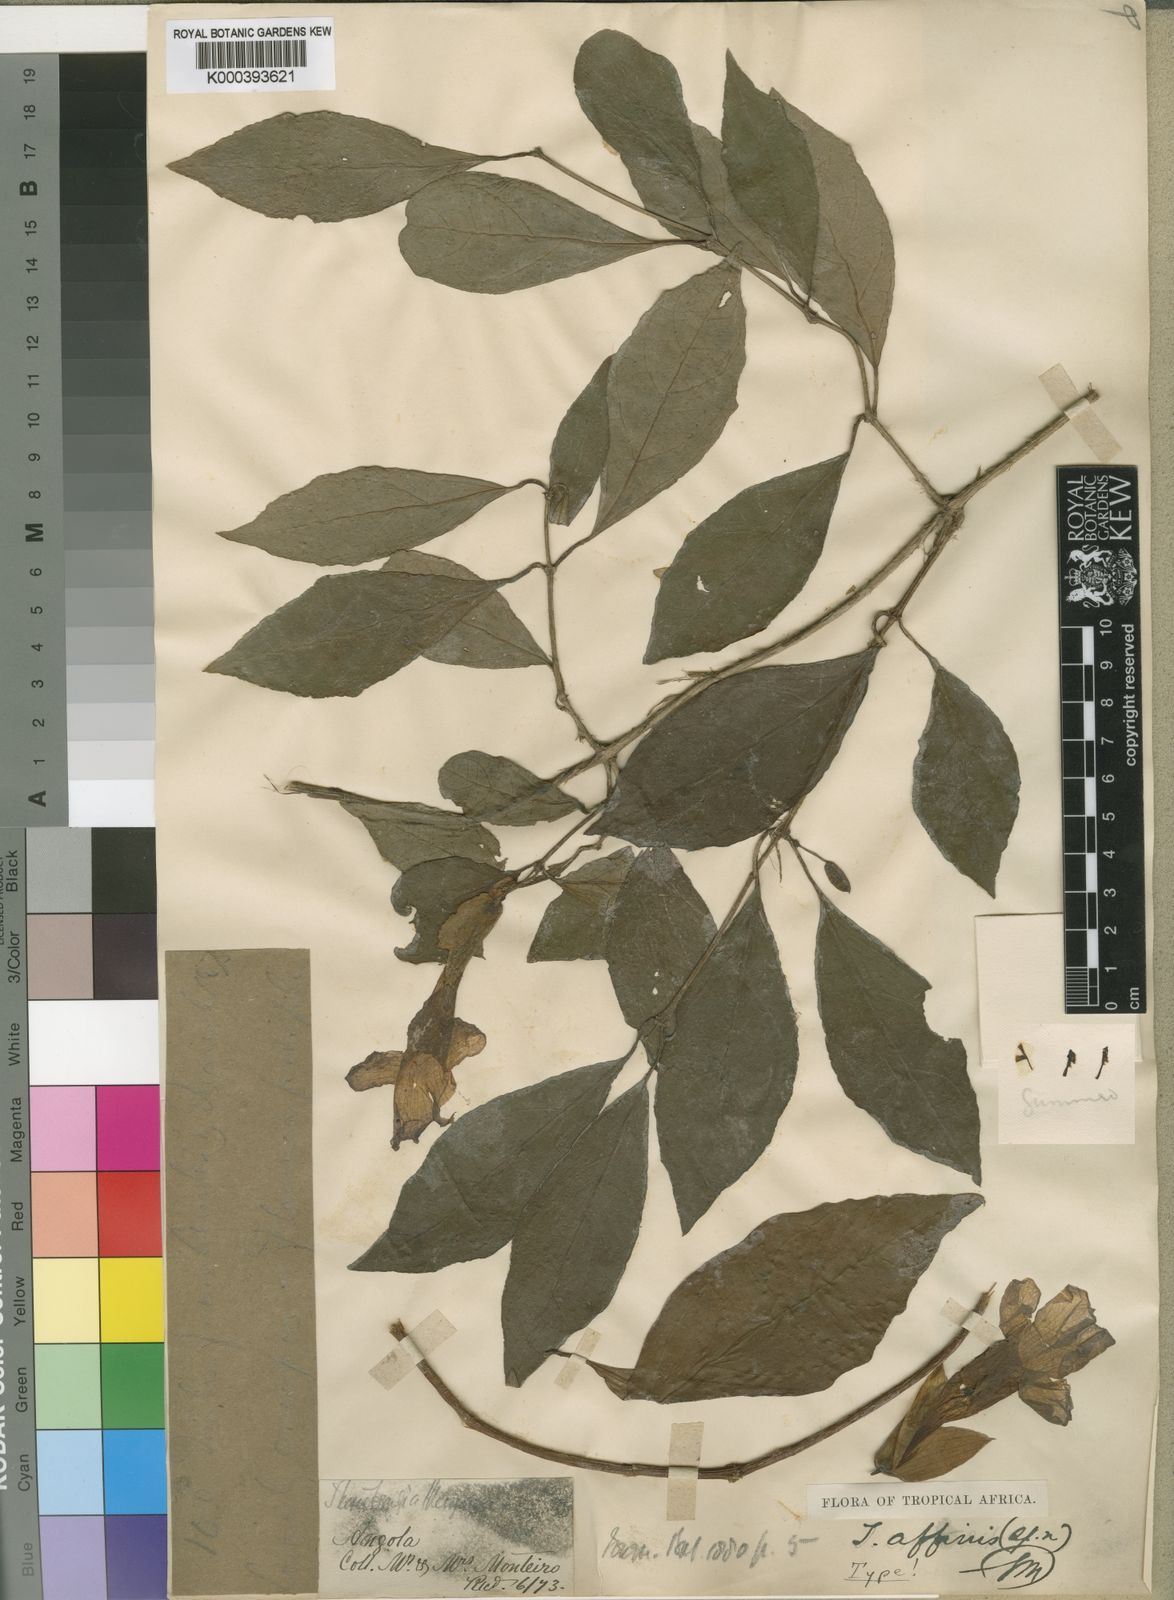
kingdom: Plantae
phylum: Tracheophyta
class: Magnoliopsida
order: Lamiales
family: Acanthaceae
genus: Thunbergia
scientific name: Thunbergia affinis
